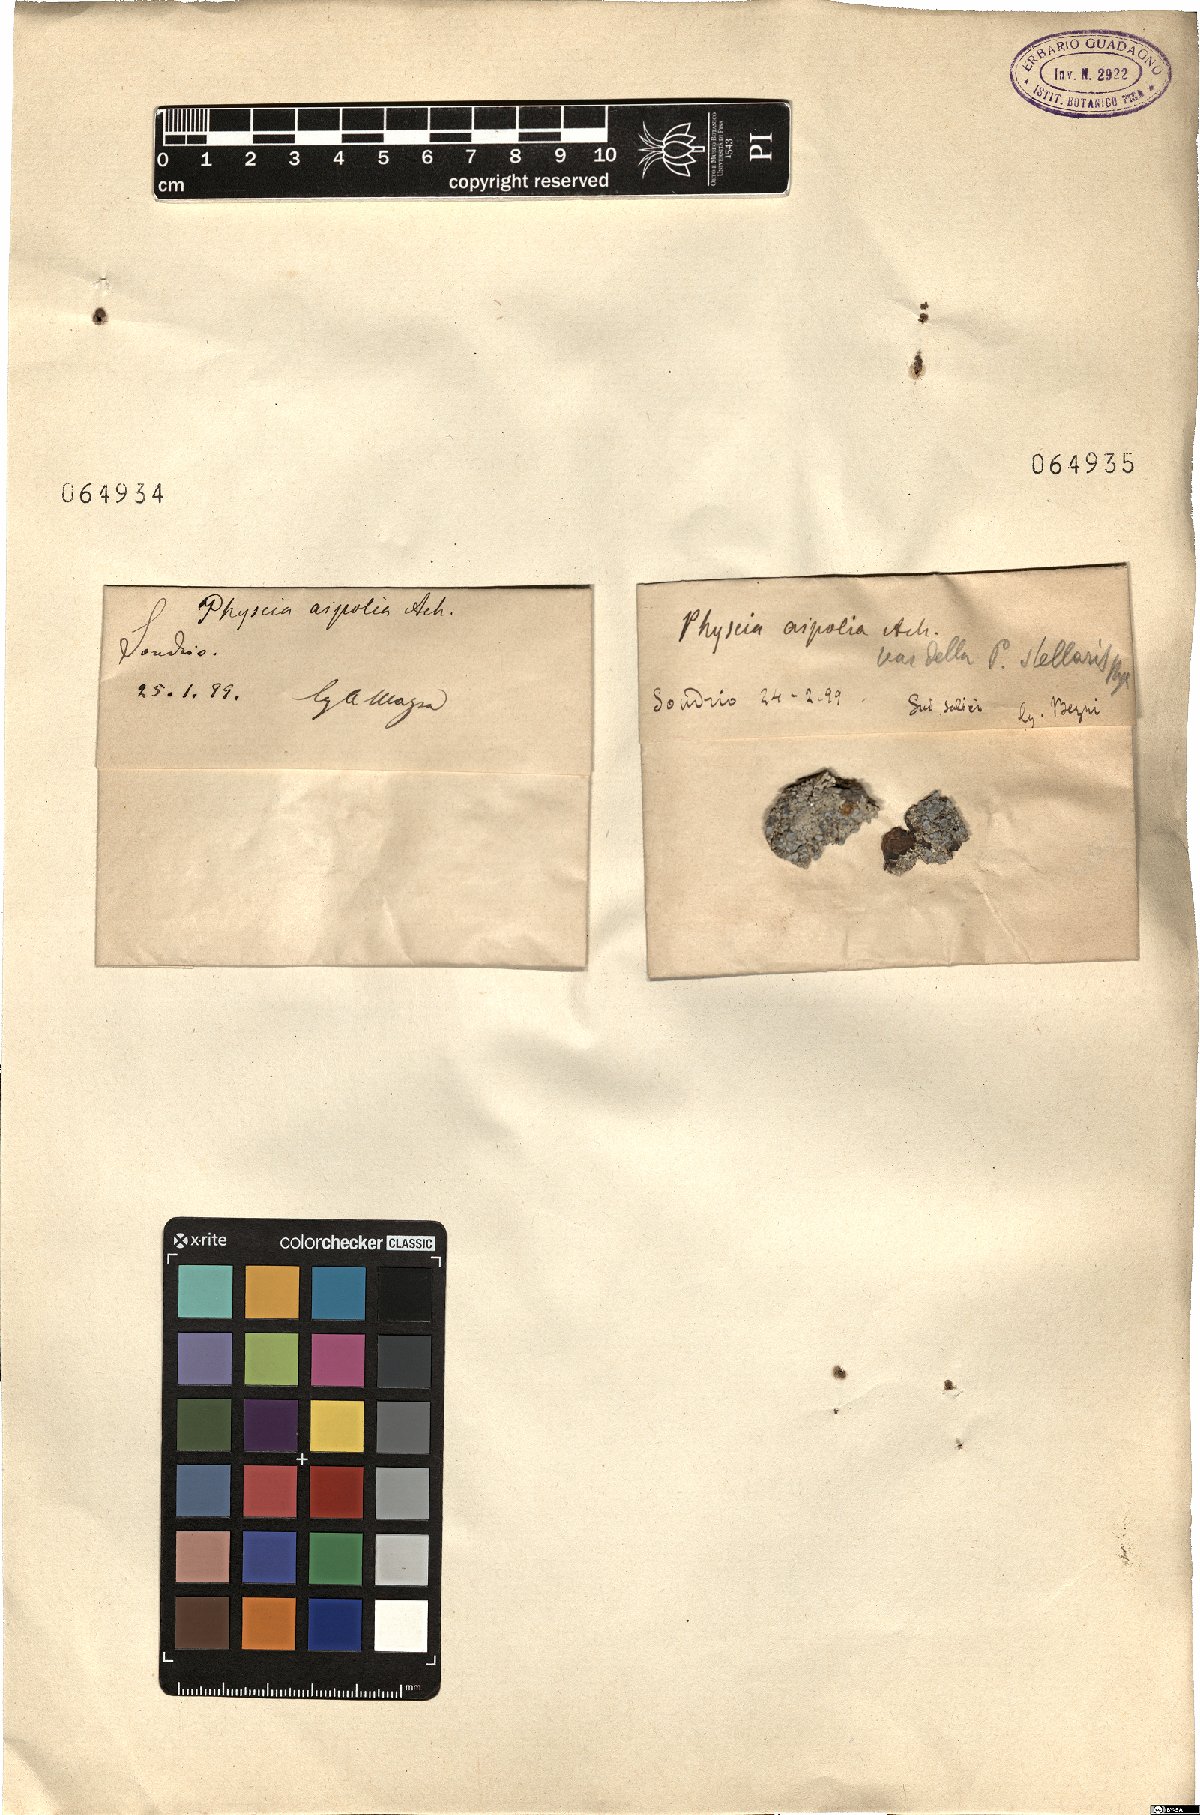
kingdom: Fungi
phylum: Ascomycota
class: Lecanoromycetes
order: Caliciales
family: Physciaceae
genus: Physcia
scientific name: Physcia aipolia
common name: Hoary rosette lichen
